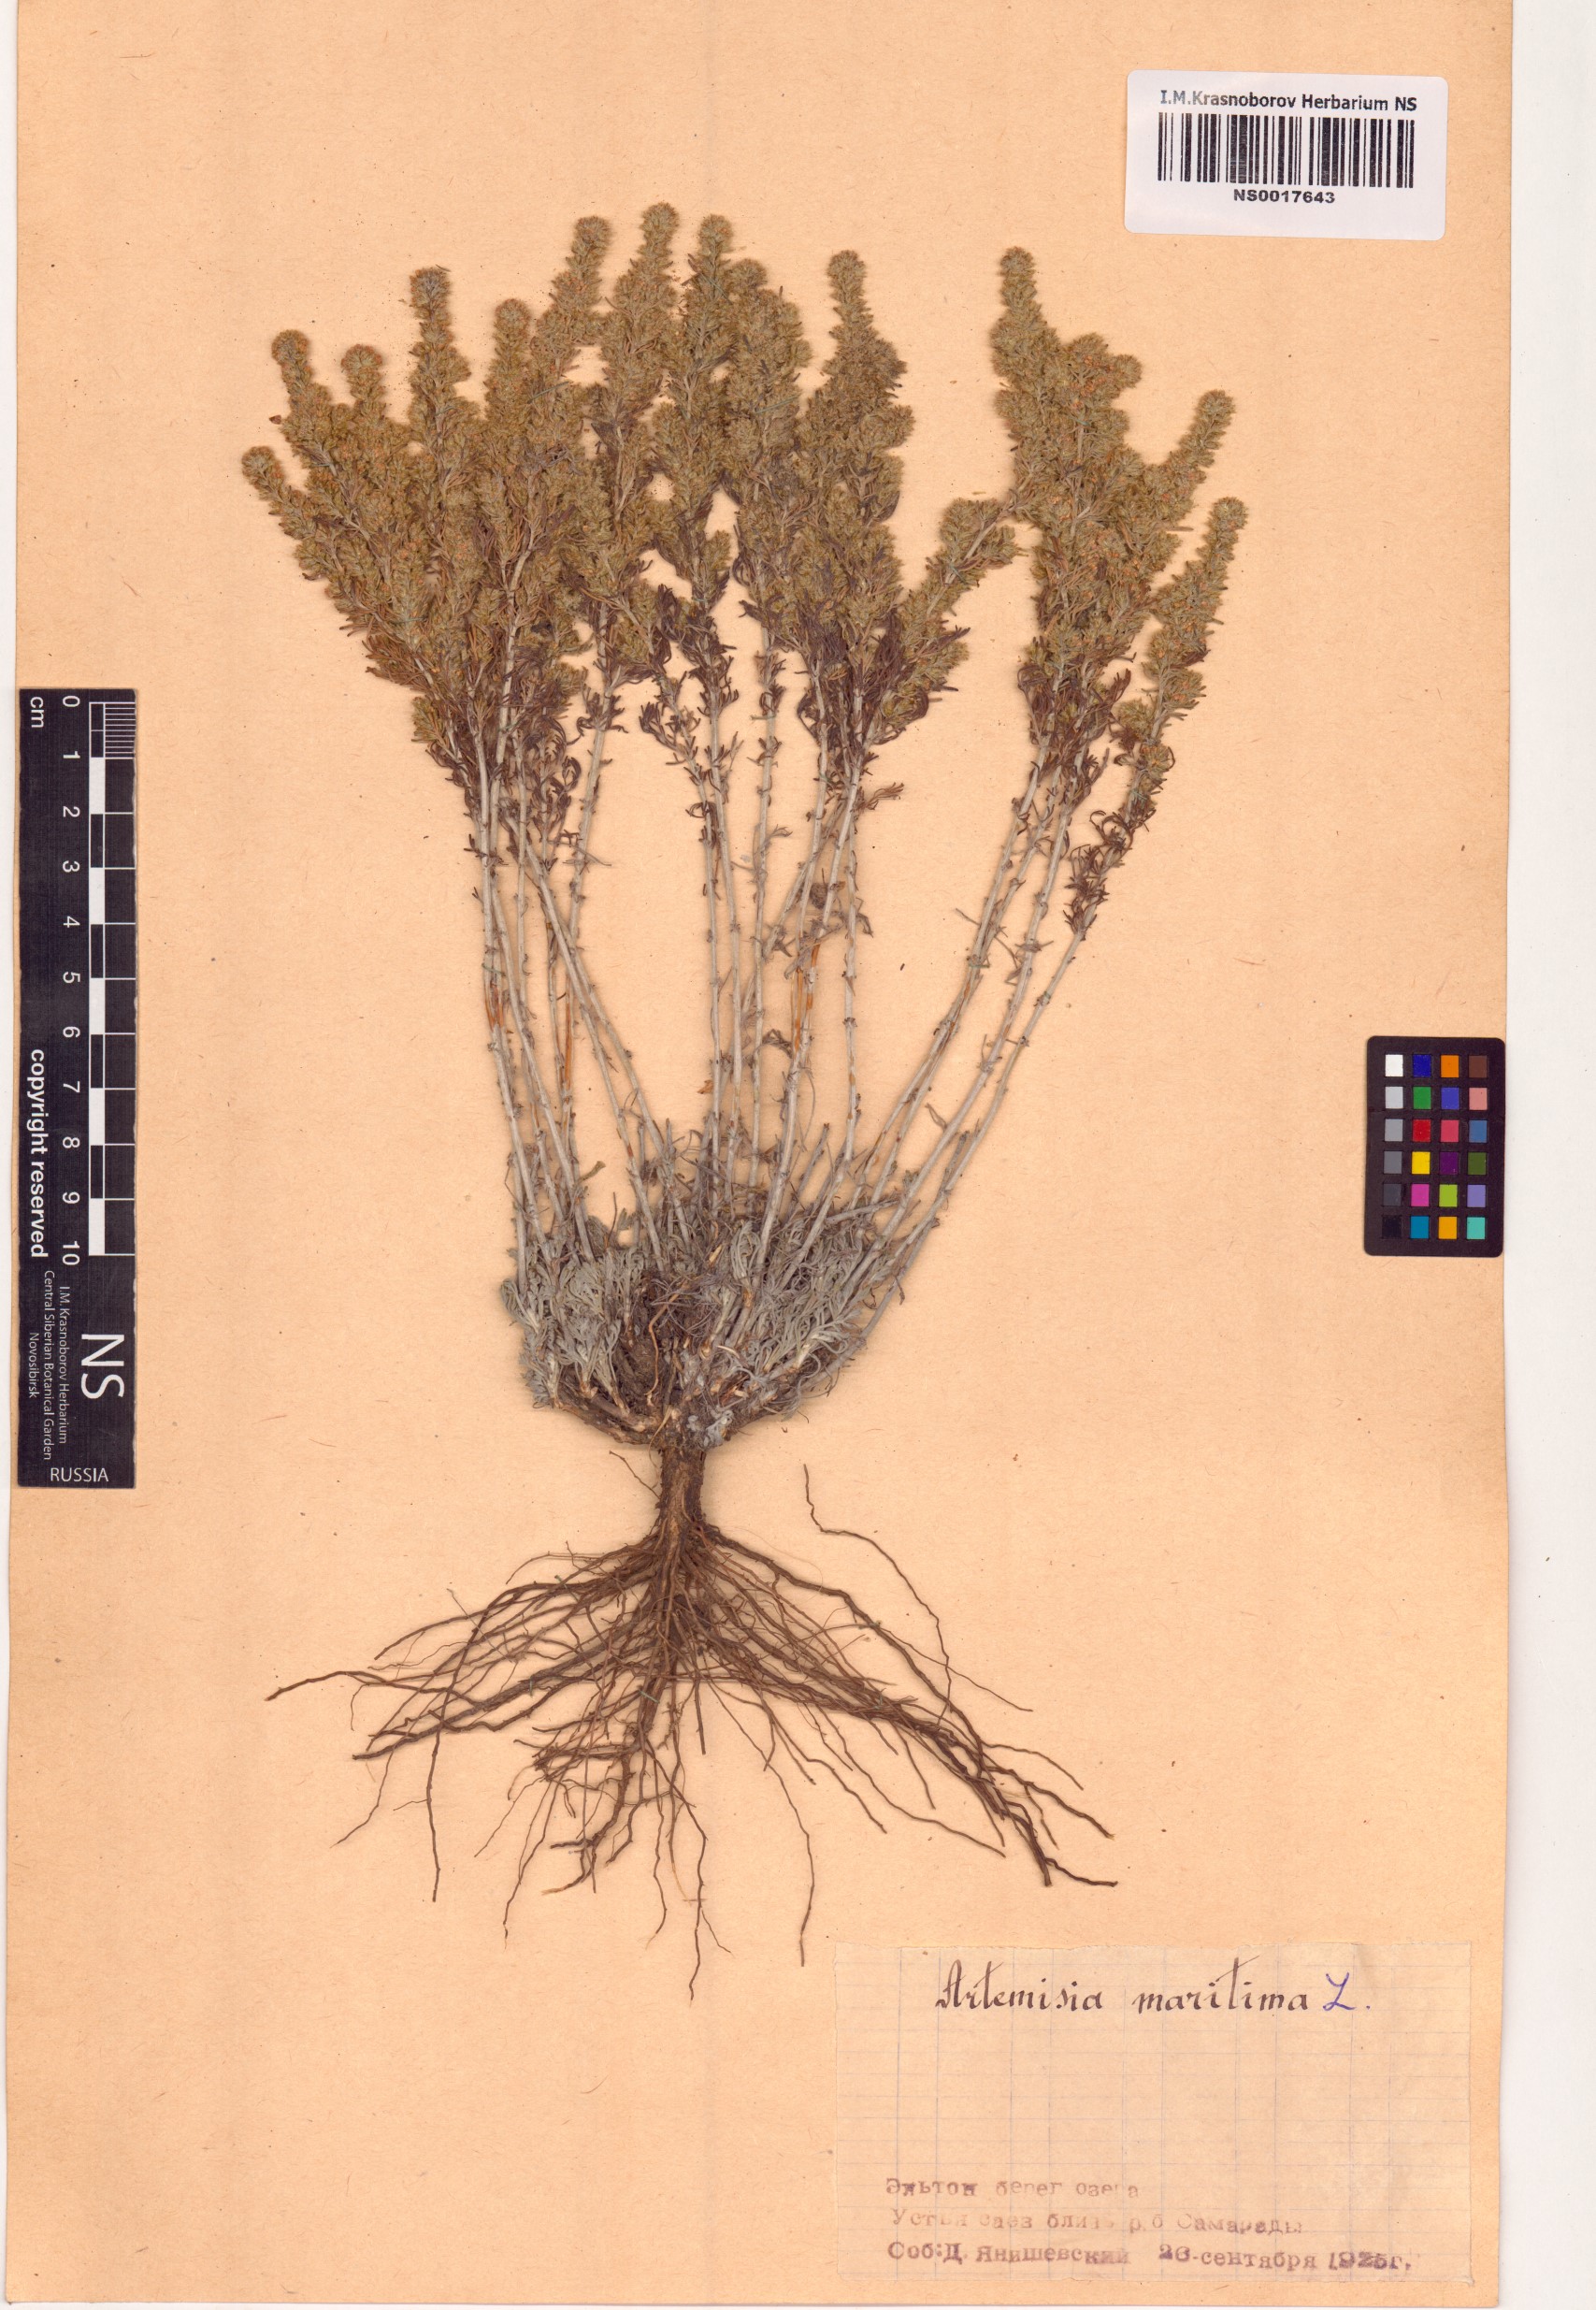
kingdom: Plantae
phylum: Tracheophyta
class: Magnoliopsida
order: Asterales
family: Asteraceae
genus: Artemisia
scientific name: Artemisia maritima
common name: Wormseed
